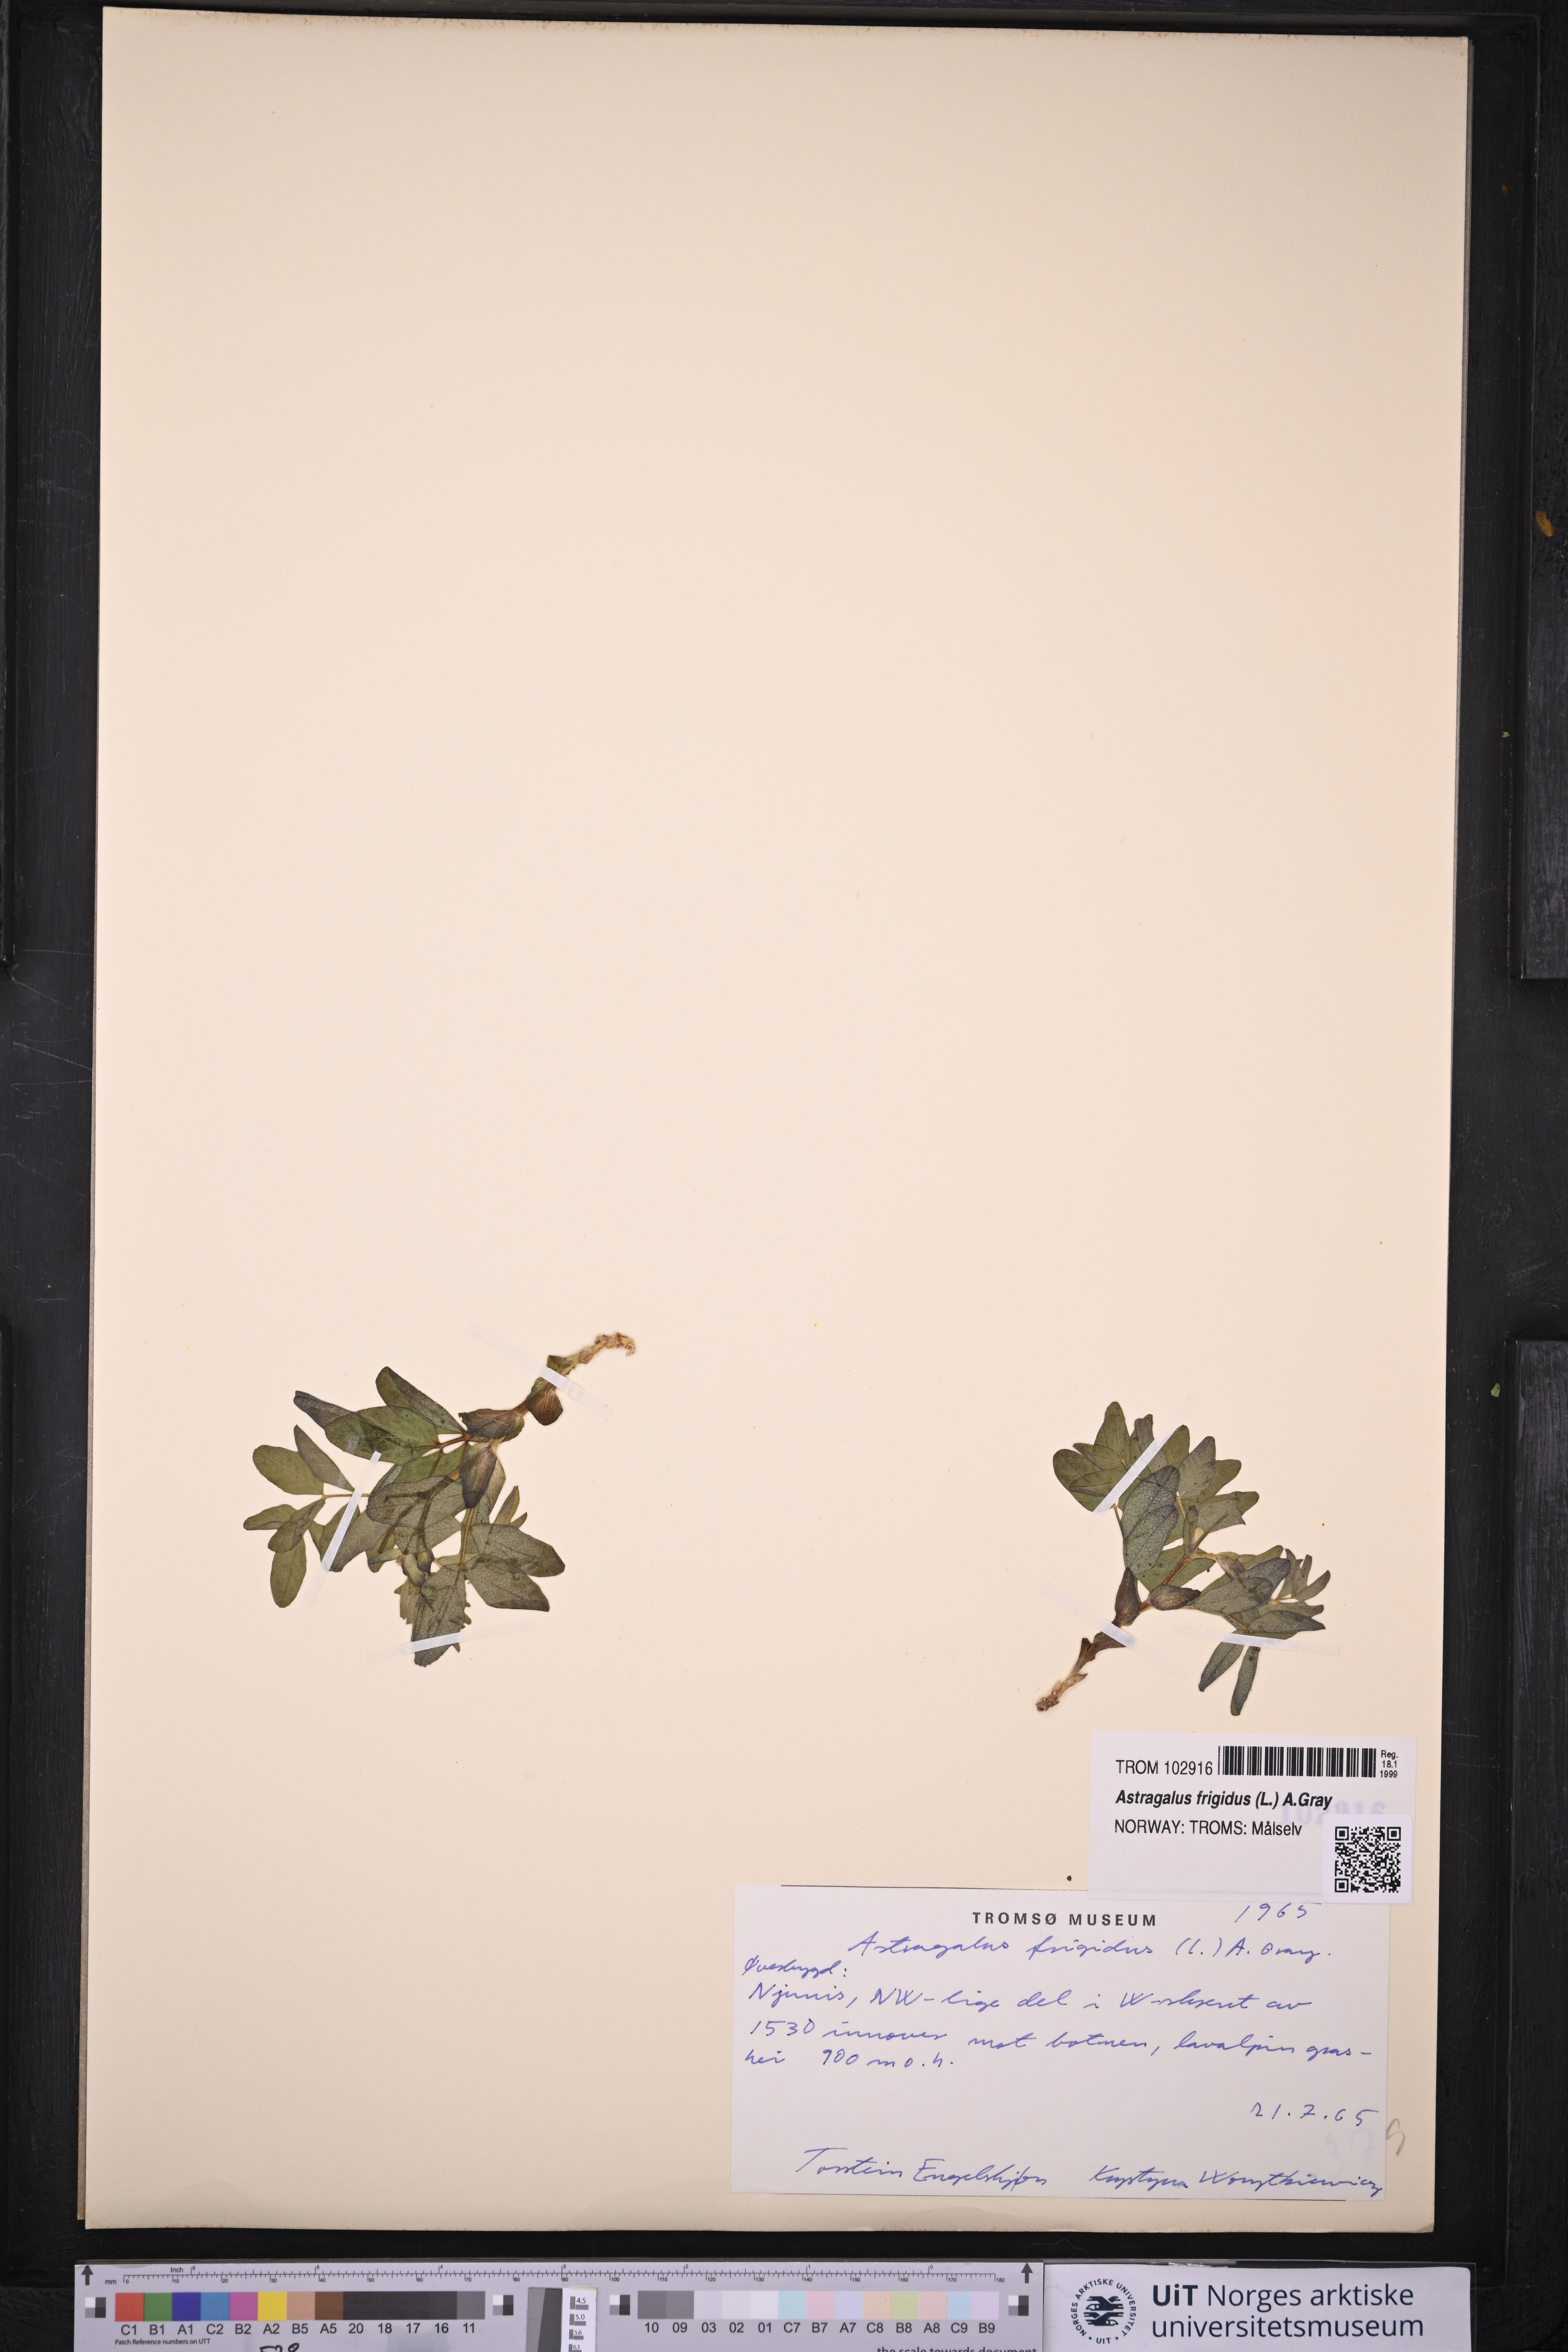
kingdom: Plantae
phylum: Tracheophyta
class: Magnoliopsida
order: Fabales
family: Fabaceae
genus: Astragalus
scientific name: Astragalus frigidus
